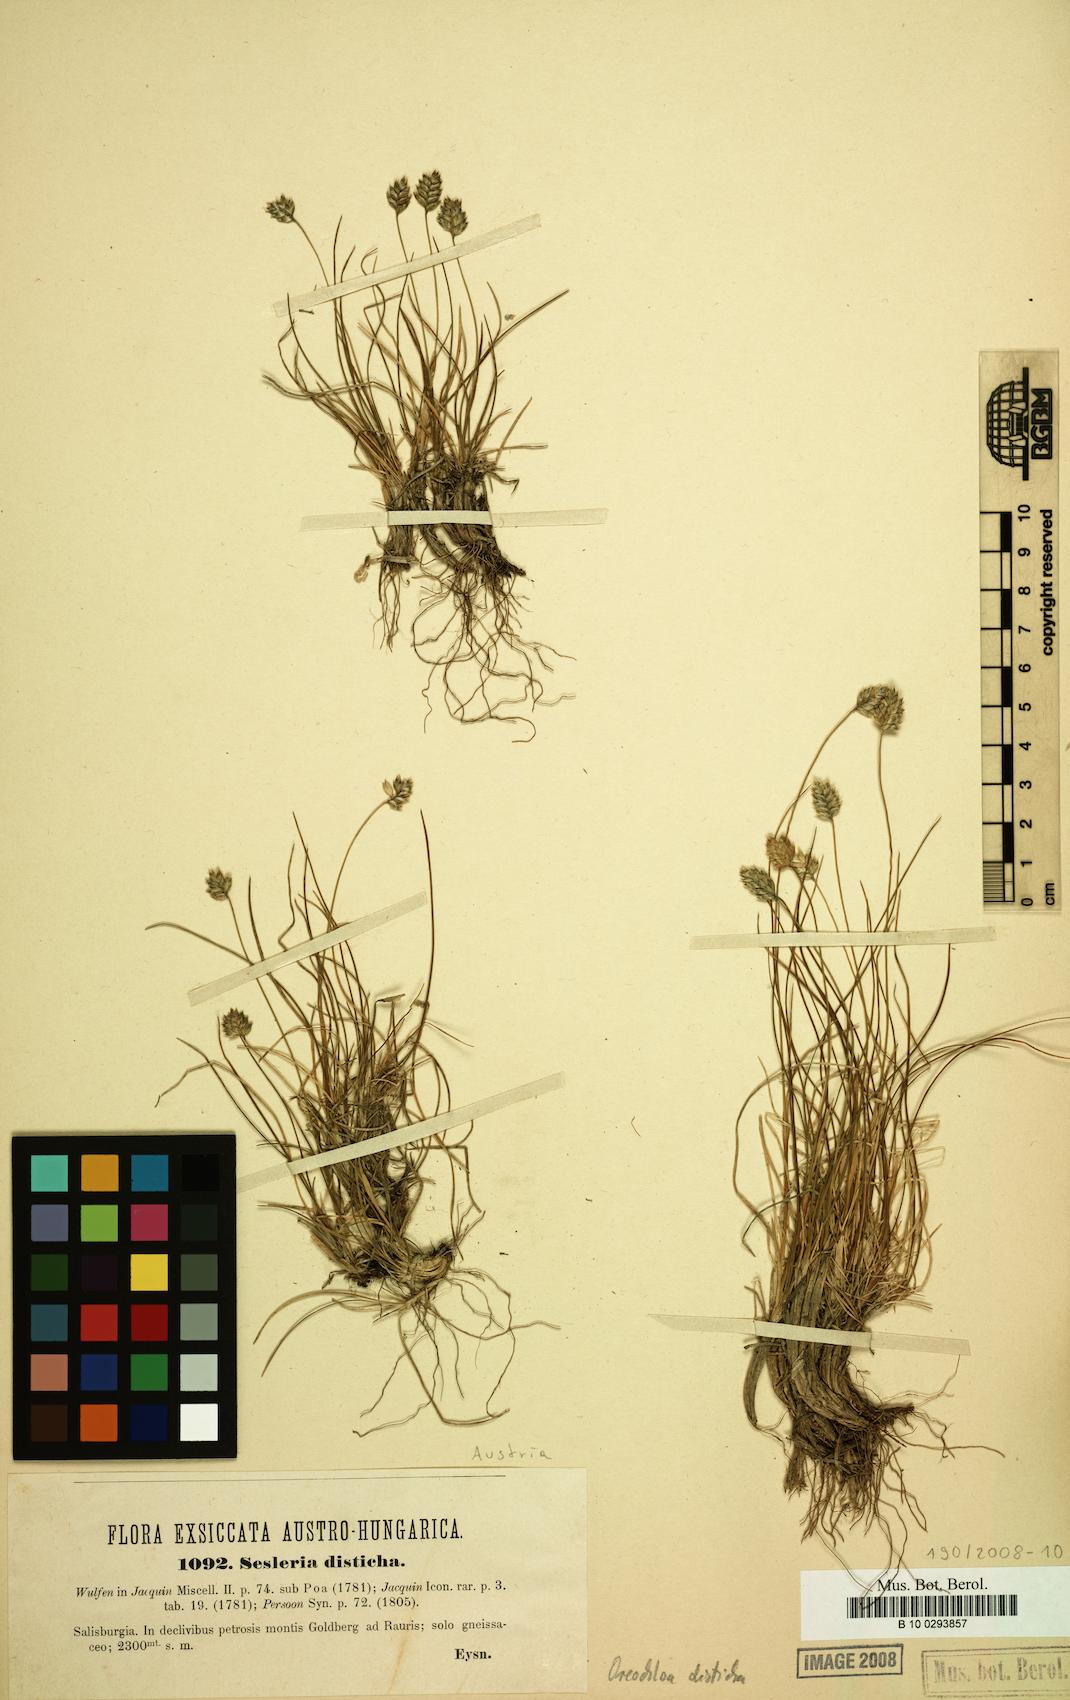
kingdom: Plantae
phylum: Tracheophyta
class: Liliopsida
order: Poales
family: Poaceae
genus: Oreochloa
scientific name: Oreochloa disticha
